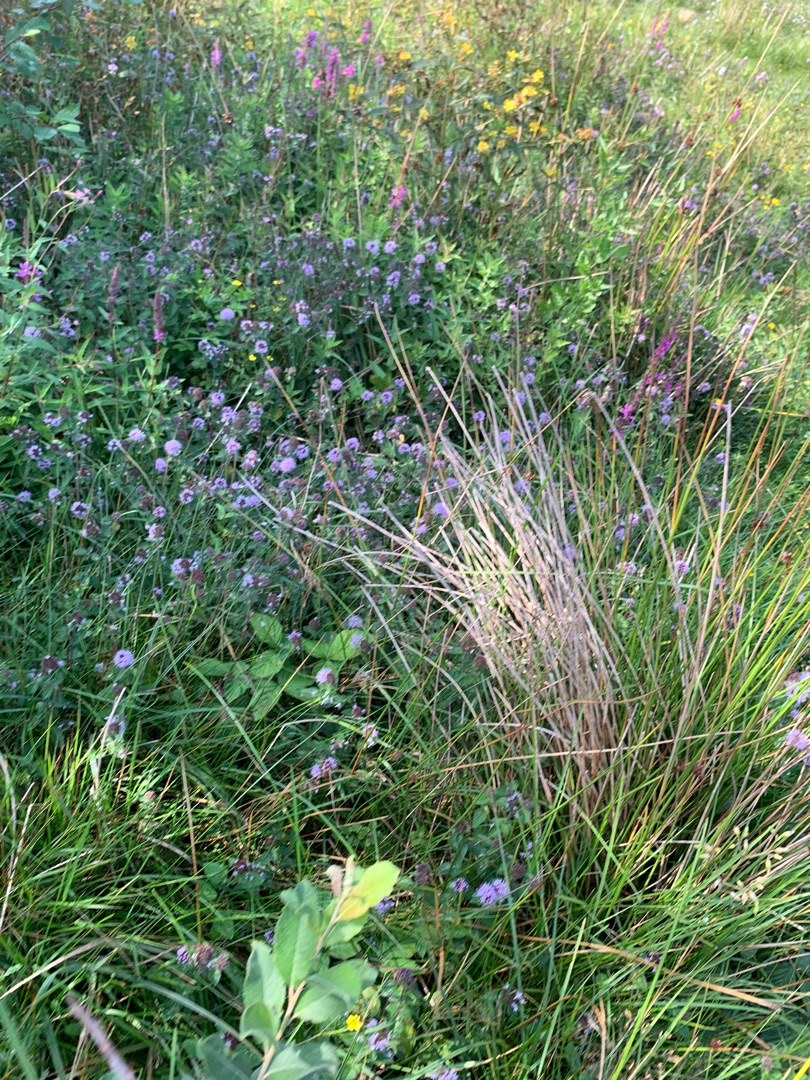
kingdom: Plantae
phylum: Tracheophyta
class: Magnoliopsida
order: Lamiales
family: Lamiaceae
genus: Mentha
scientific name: Mentha aquatica
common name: Vand-mynte
